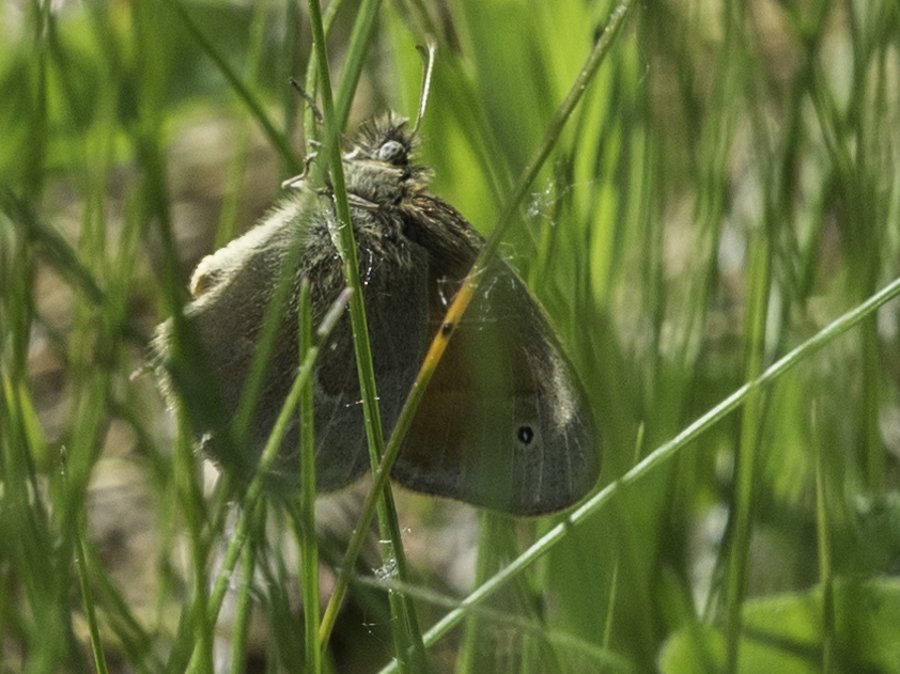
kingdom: Animalia
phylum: Arthropoda
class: Insecta
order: Lepidoptera
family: Nymphalidae
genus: Coenonympha
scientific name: Coenonympha tullia
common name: Large Heath
